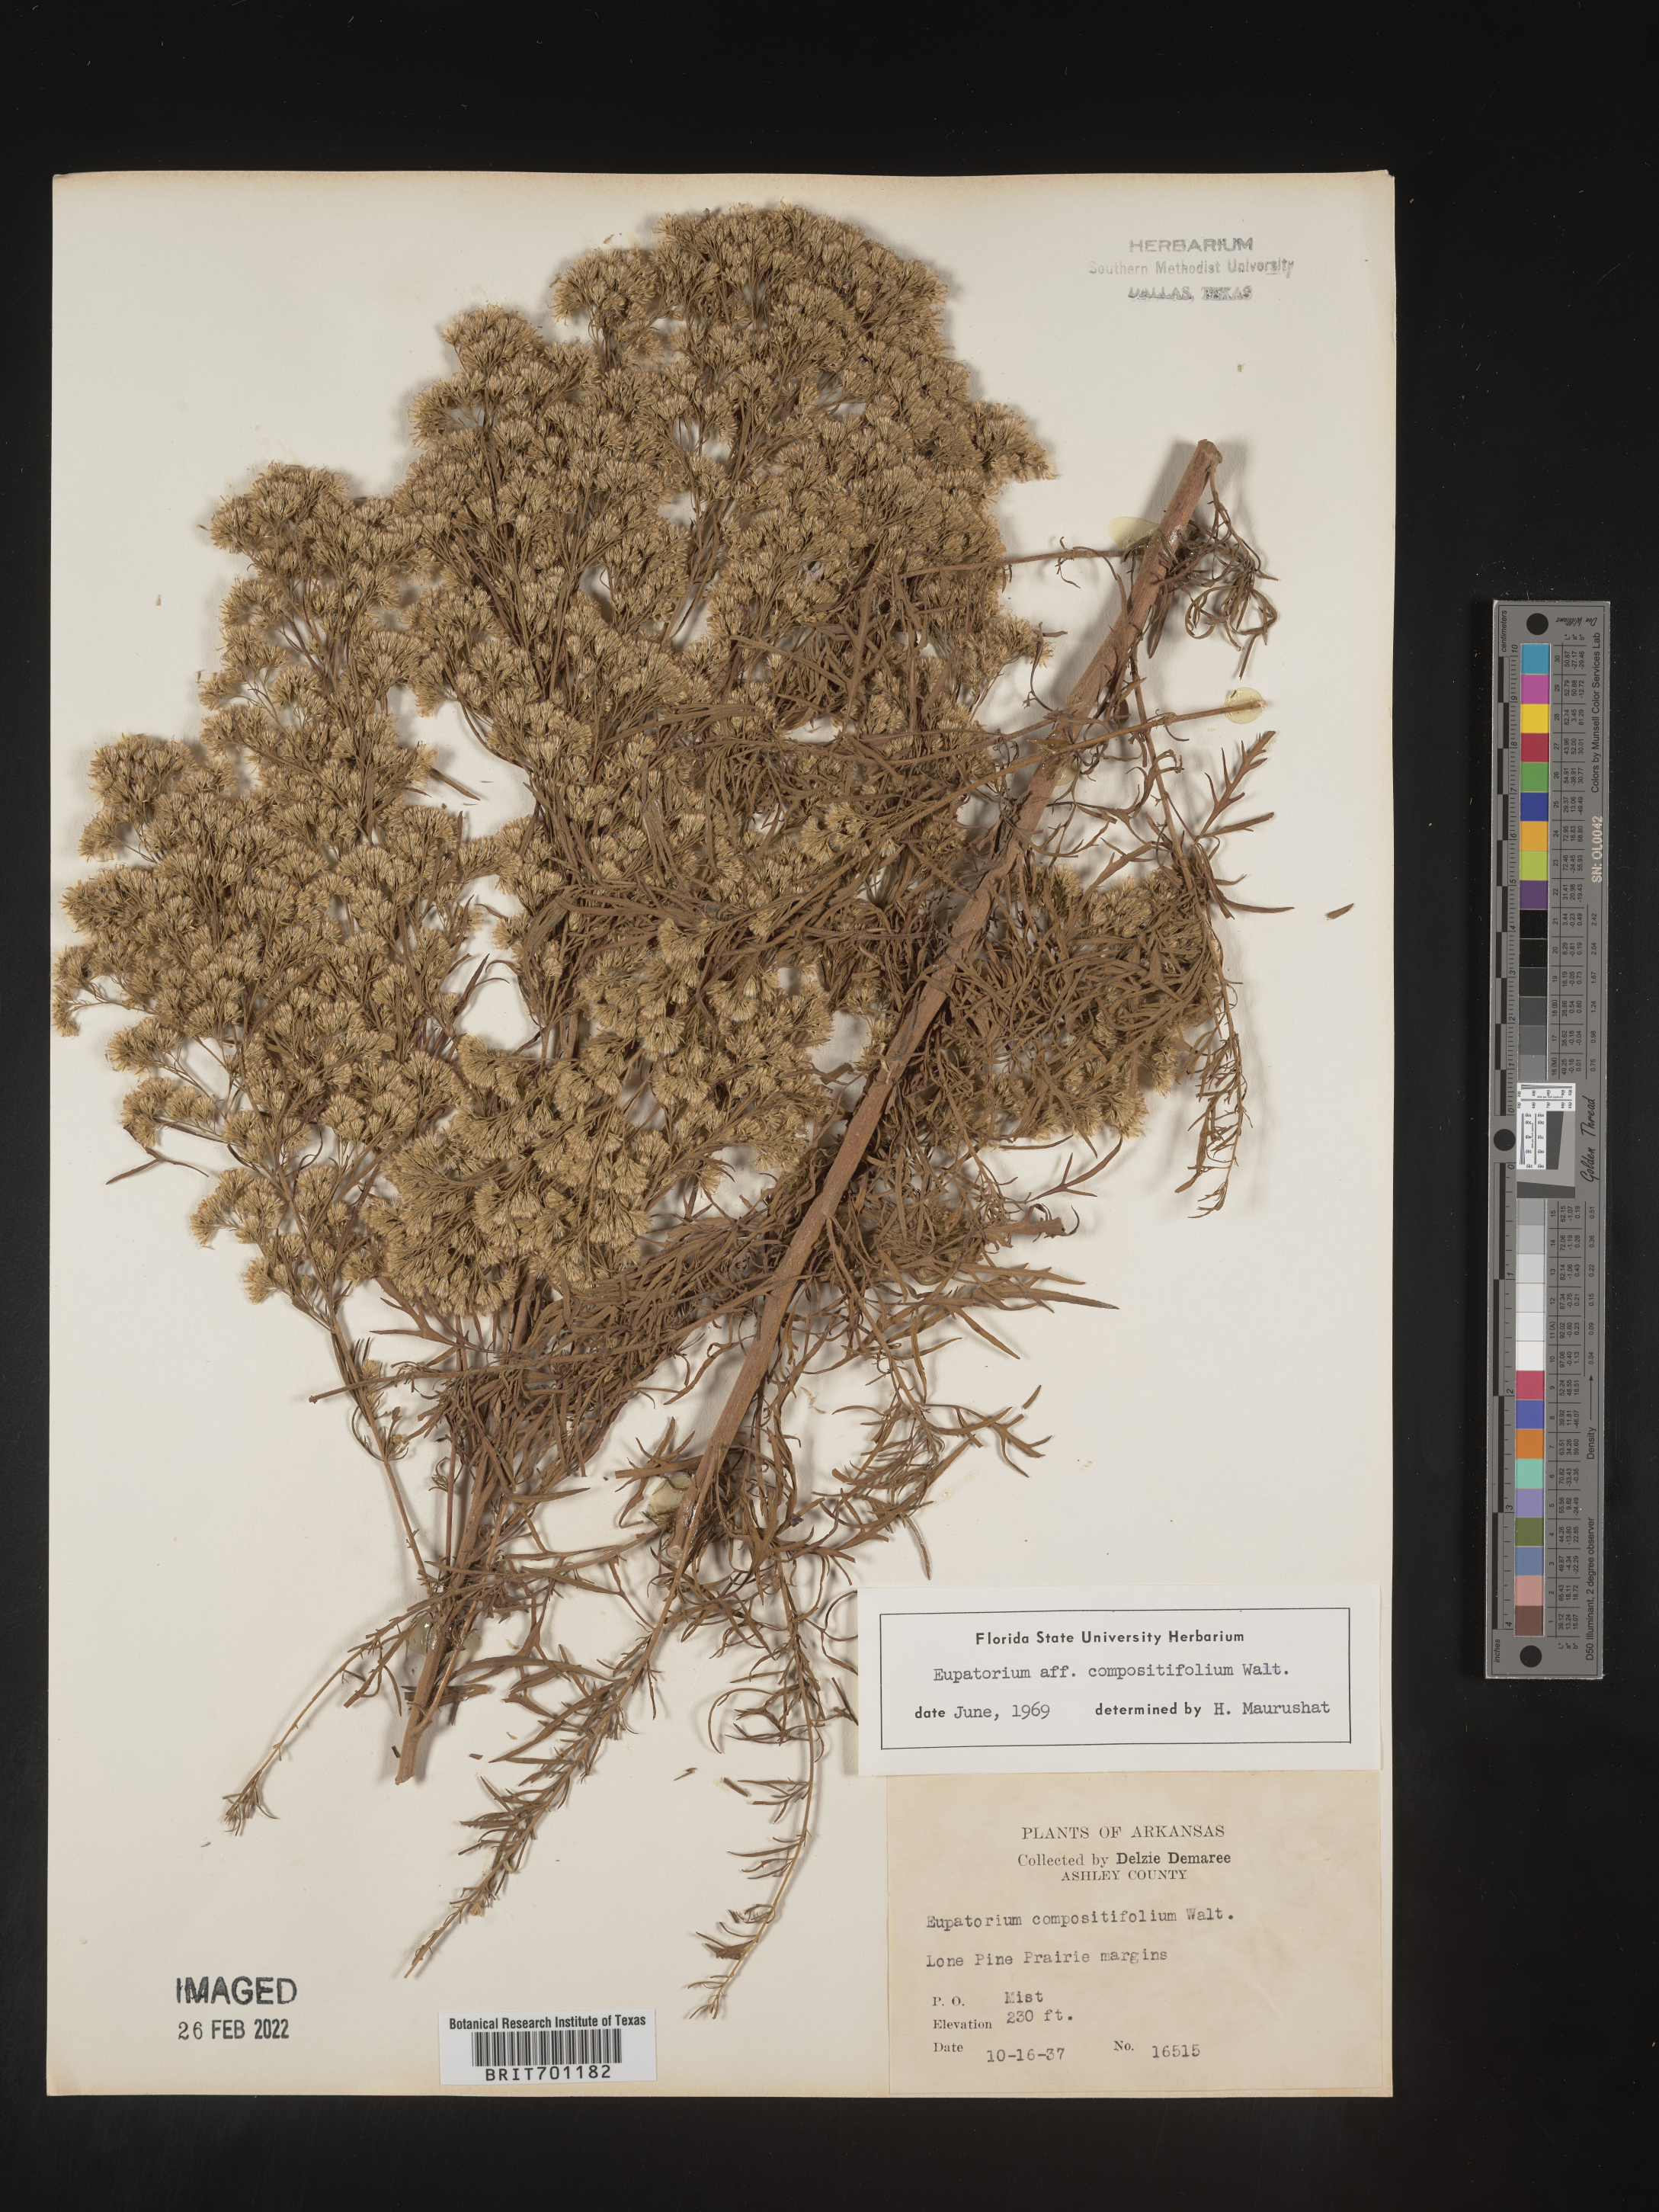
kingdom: Plantae
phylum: Tracheophyta
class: Magnoliopsida
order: Asterales
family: Asteraceae
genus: Eupatorium
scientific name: Eupatorium compositifolium
